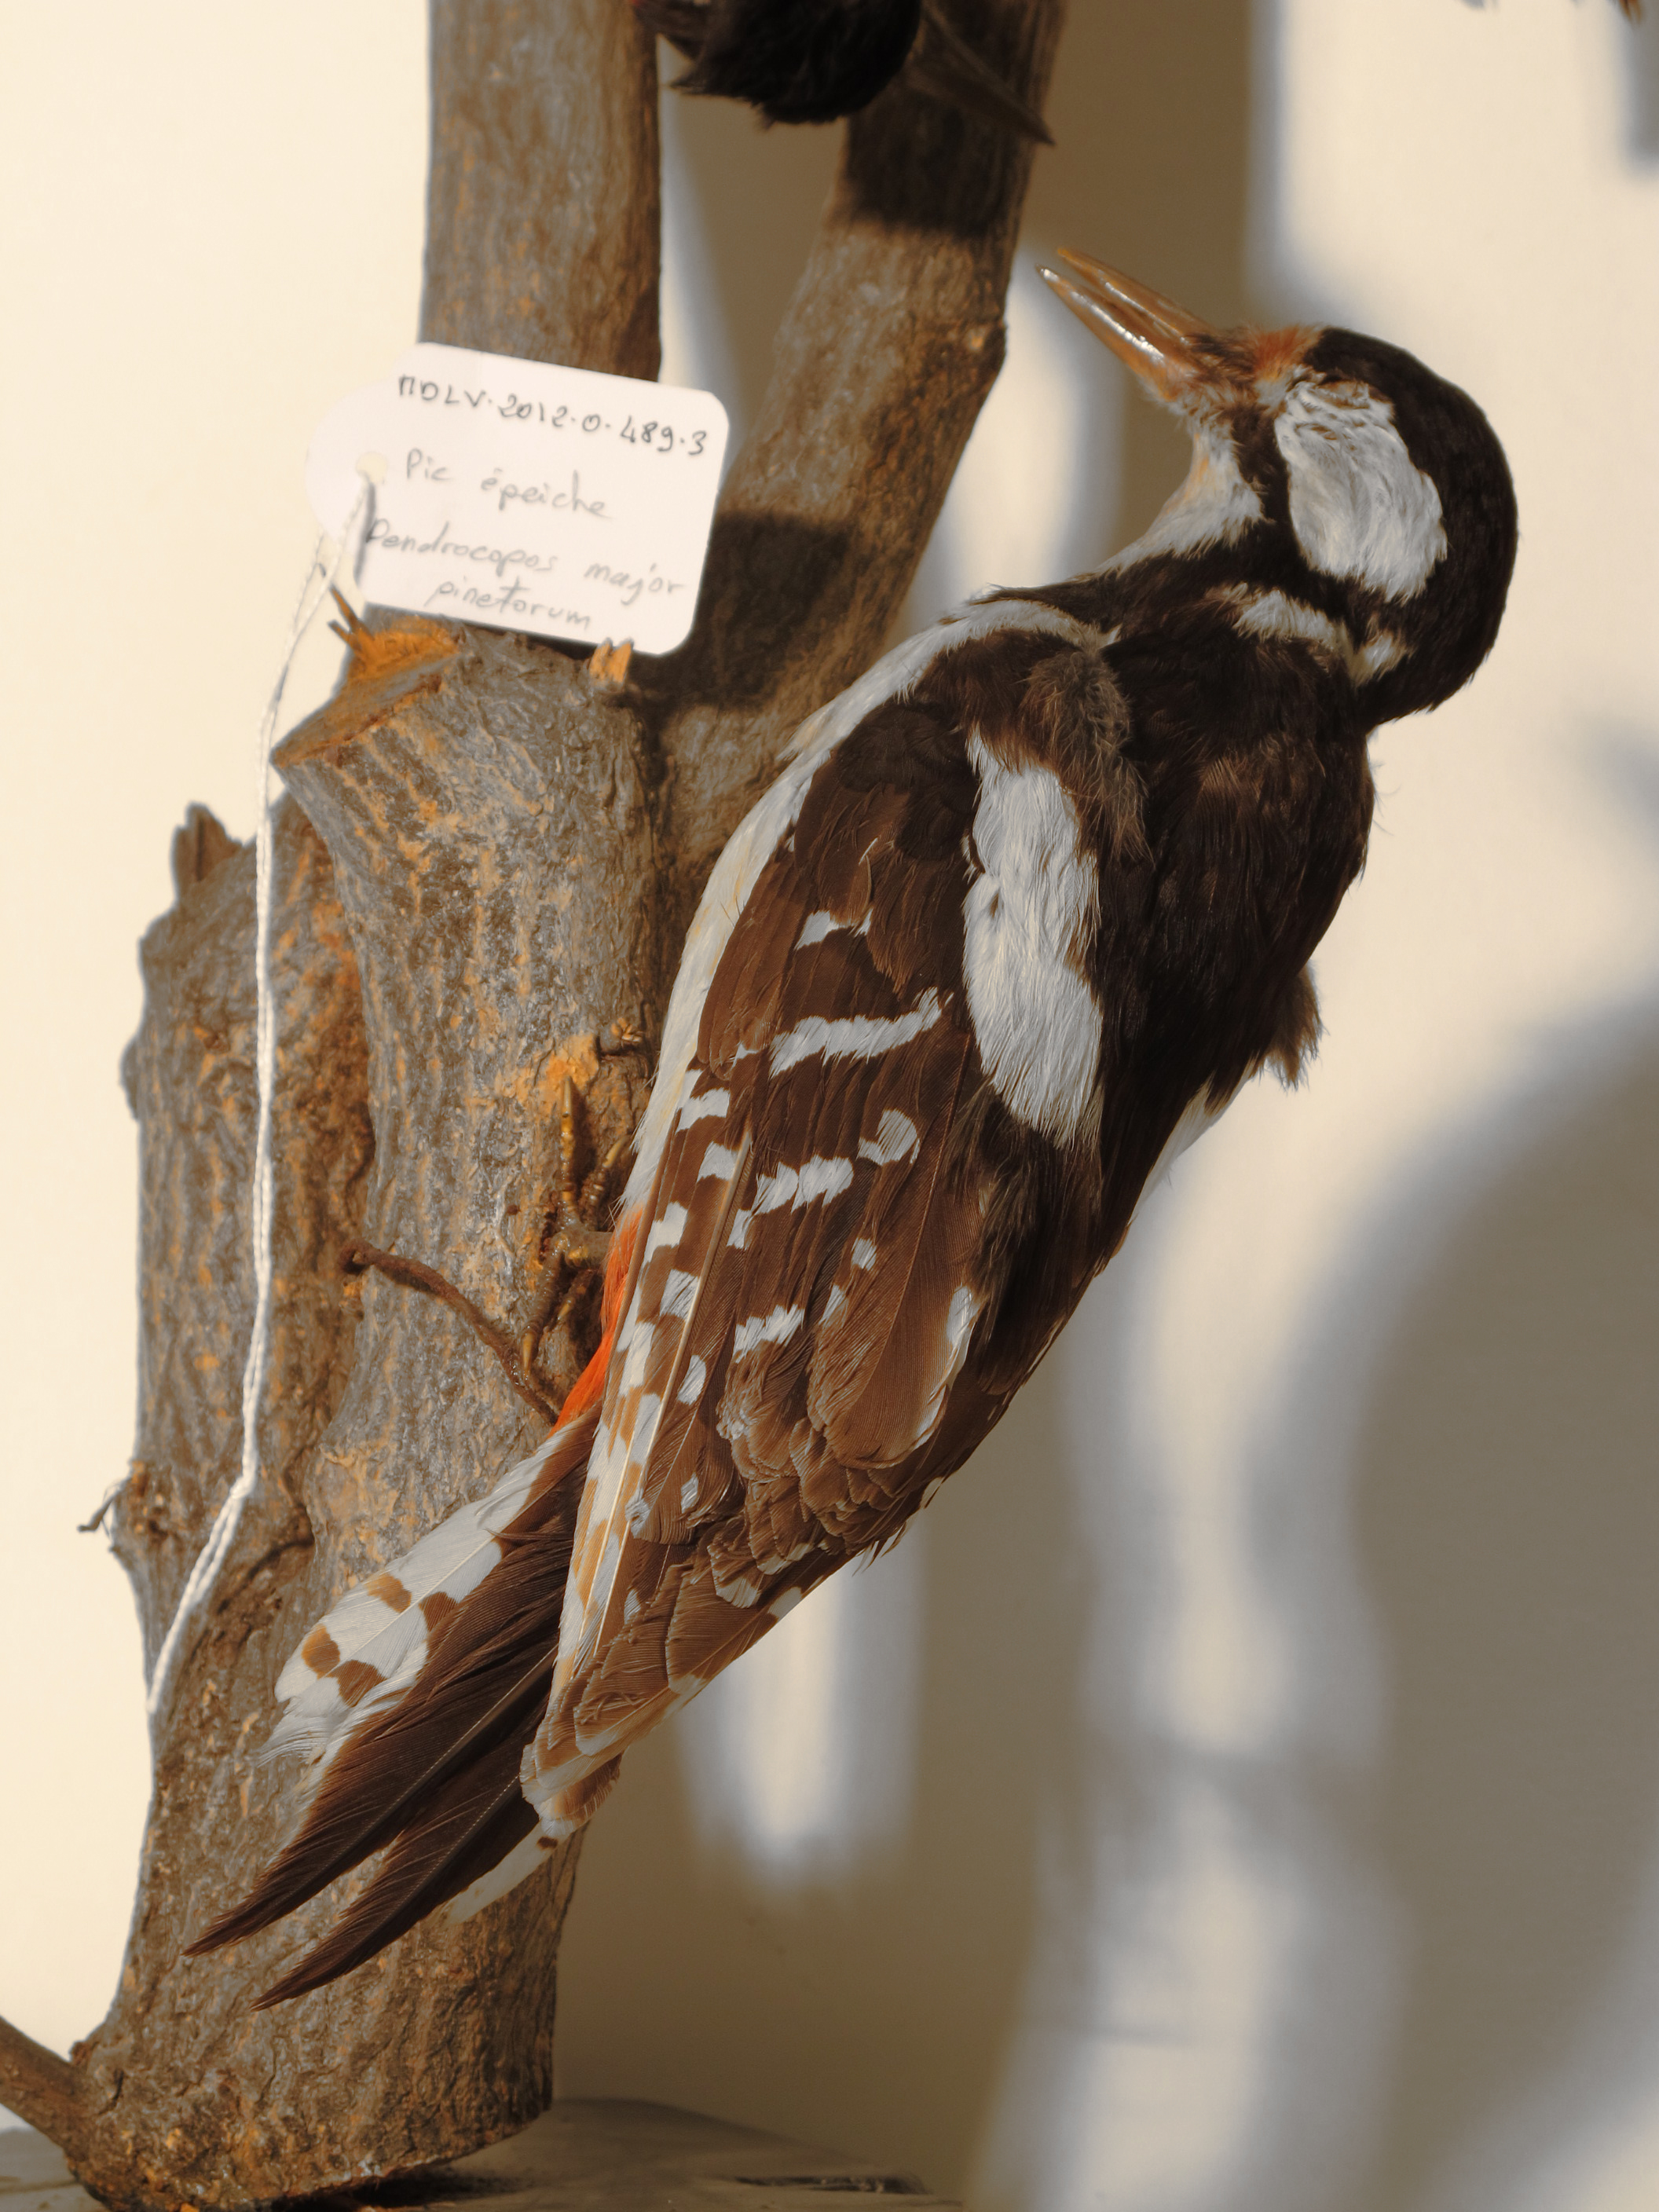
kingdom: Animalia
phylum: Chordata
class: Aves
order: Piciformes
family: Picidae
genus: Dendrocopos
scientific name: Dendrocopos major
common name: Great Spotted Woodpecker
